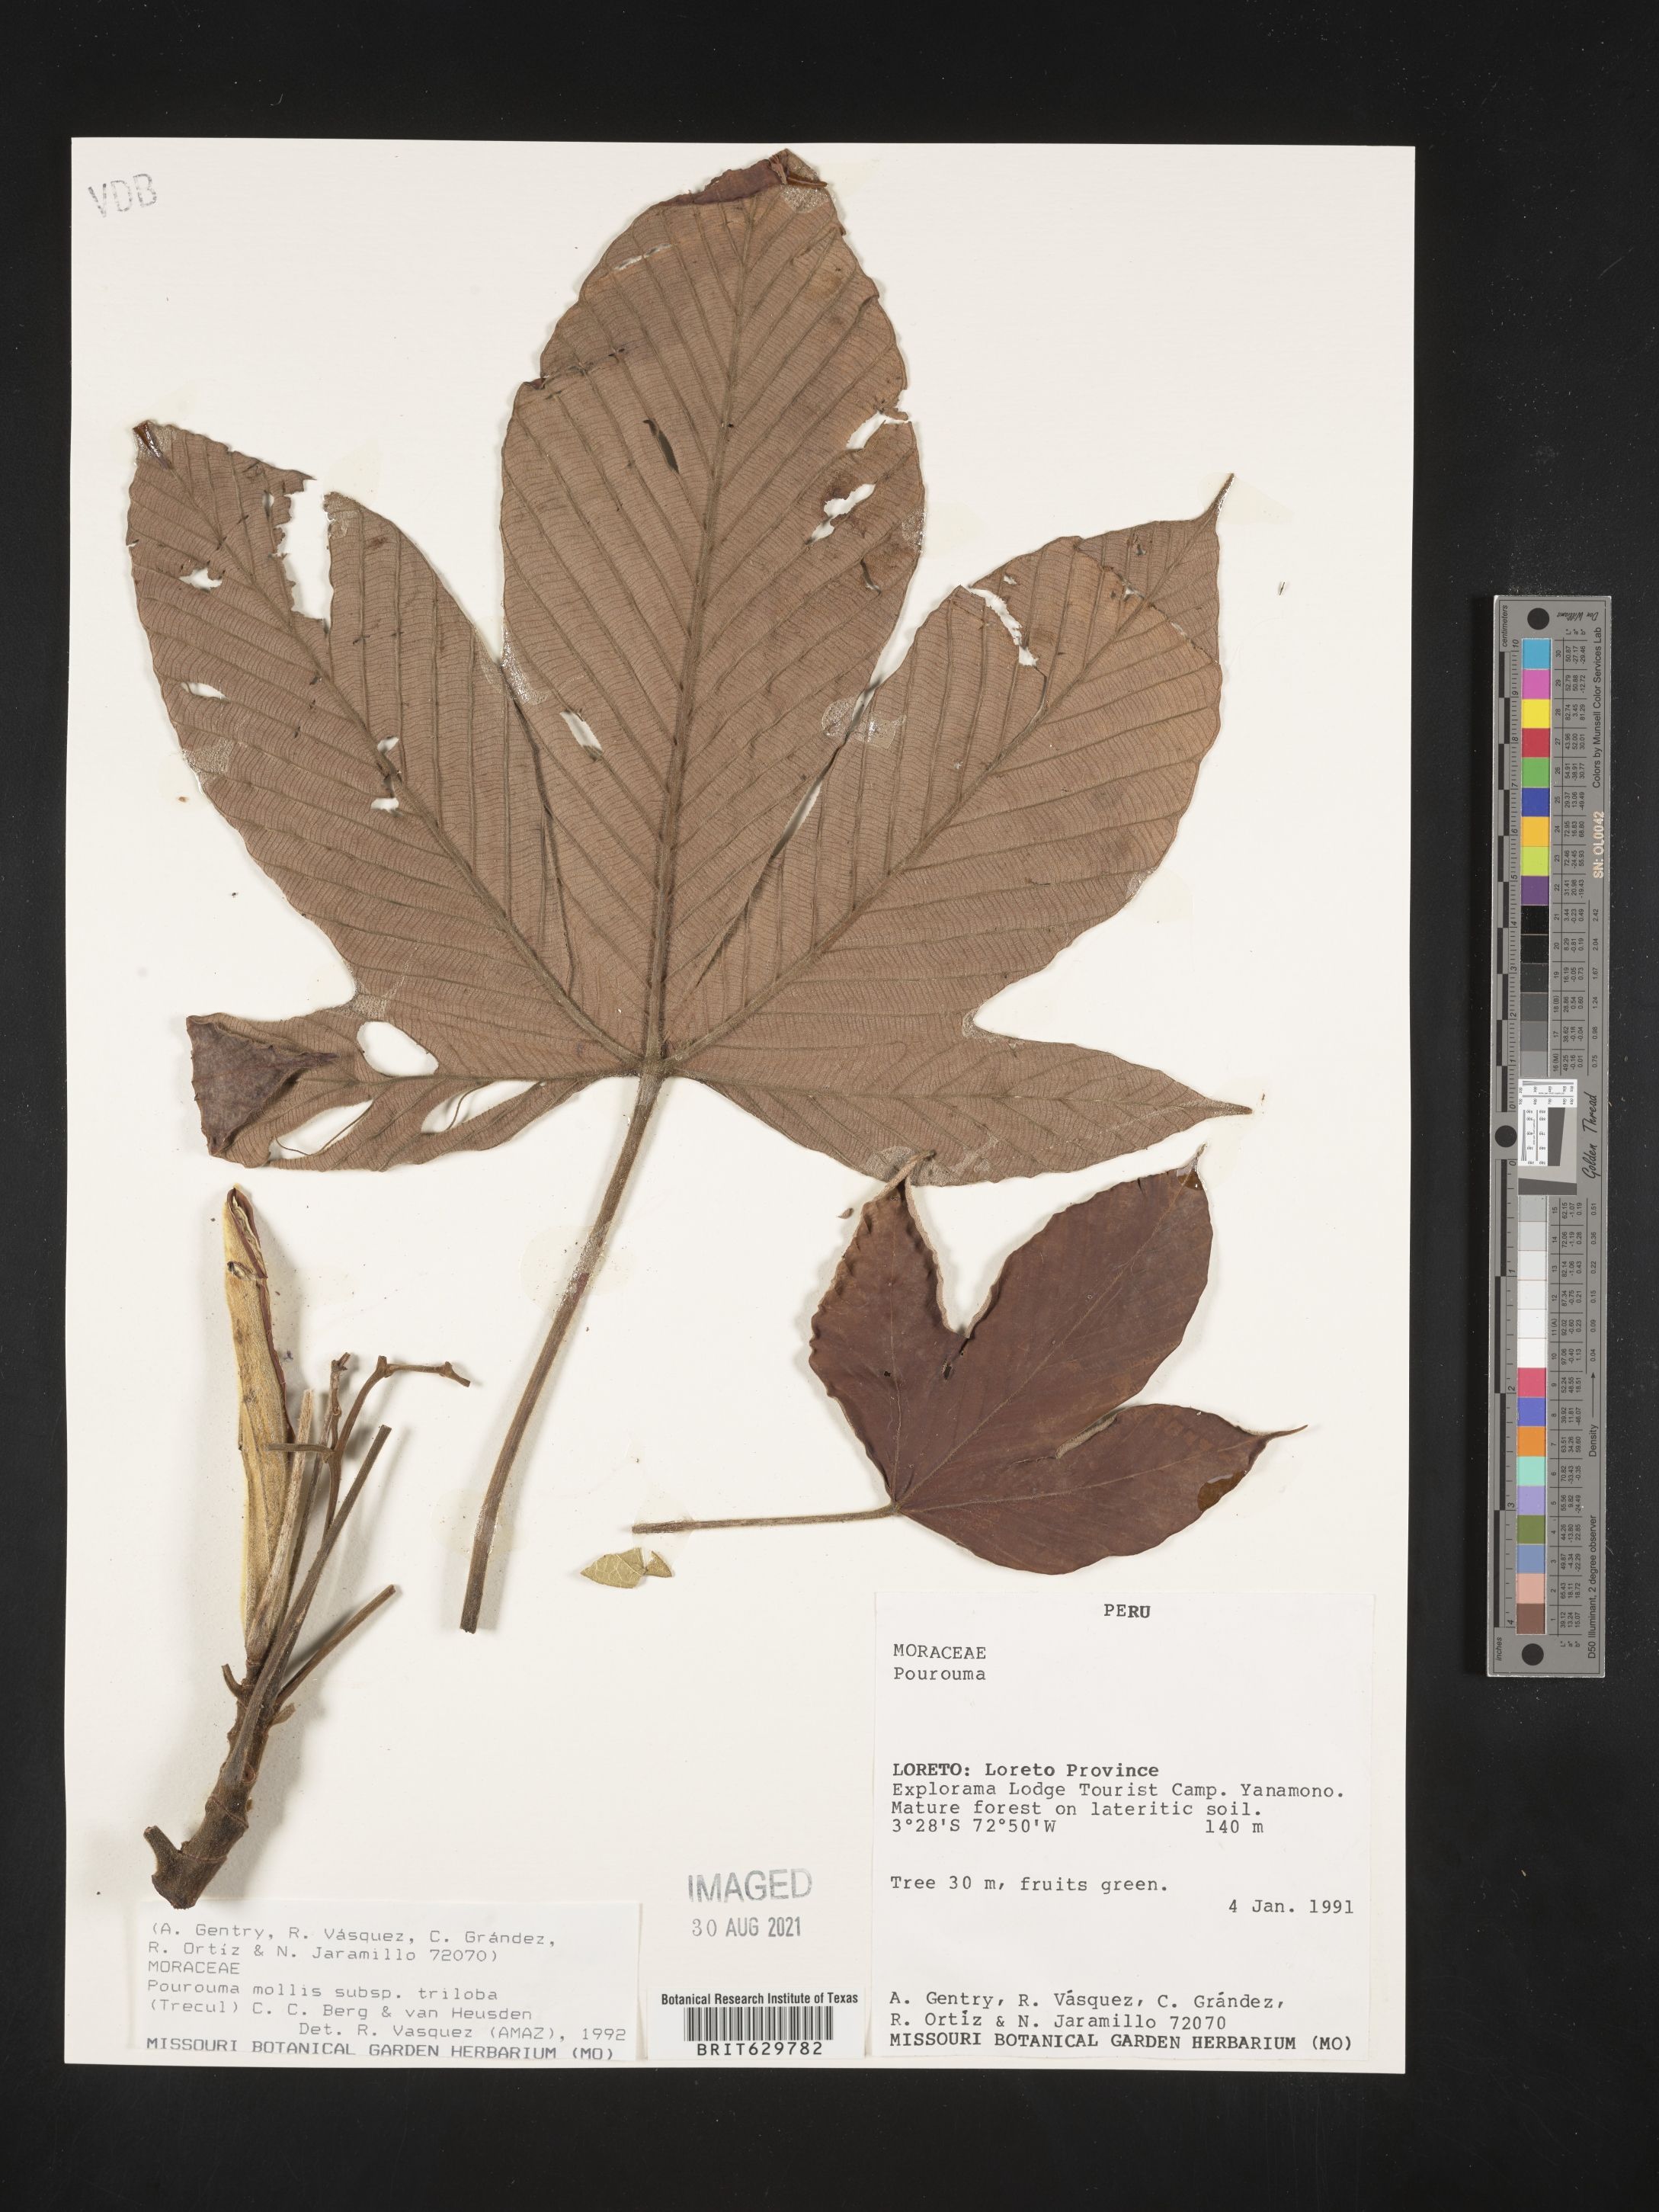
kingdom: Plantae
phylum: Tracheophyta
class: Magnoliopsida
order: Rosales
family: Urticaceae
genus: Pourouma
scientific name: Pourouma
